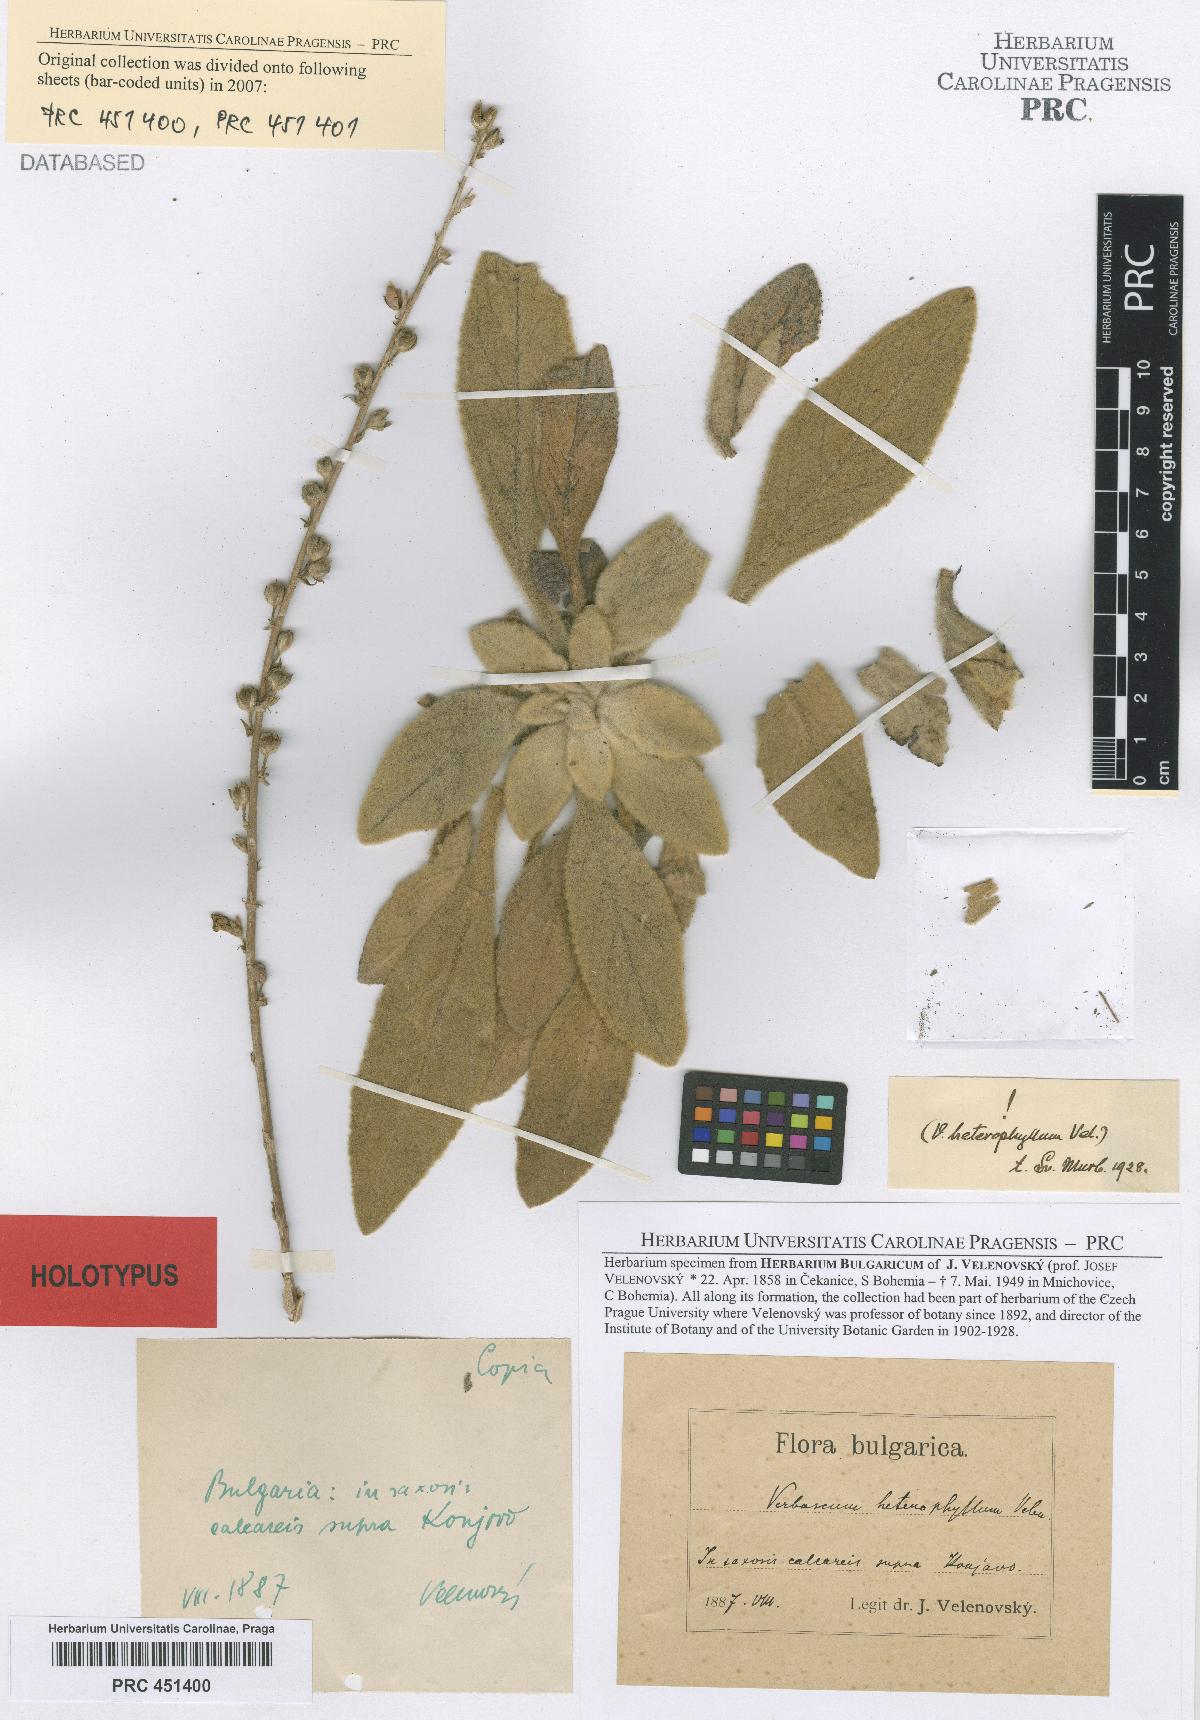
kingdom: Plantae
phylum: Tracheophyta
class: Magnoliopsida
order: Lamiales
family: Scrophulariaceae
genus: Verbascum
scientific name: Verbascum anisophyllum
